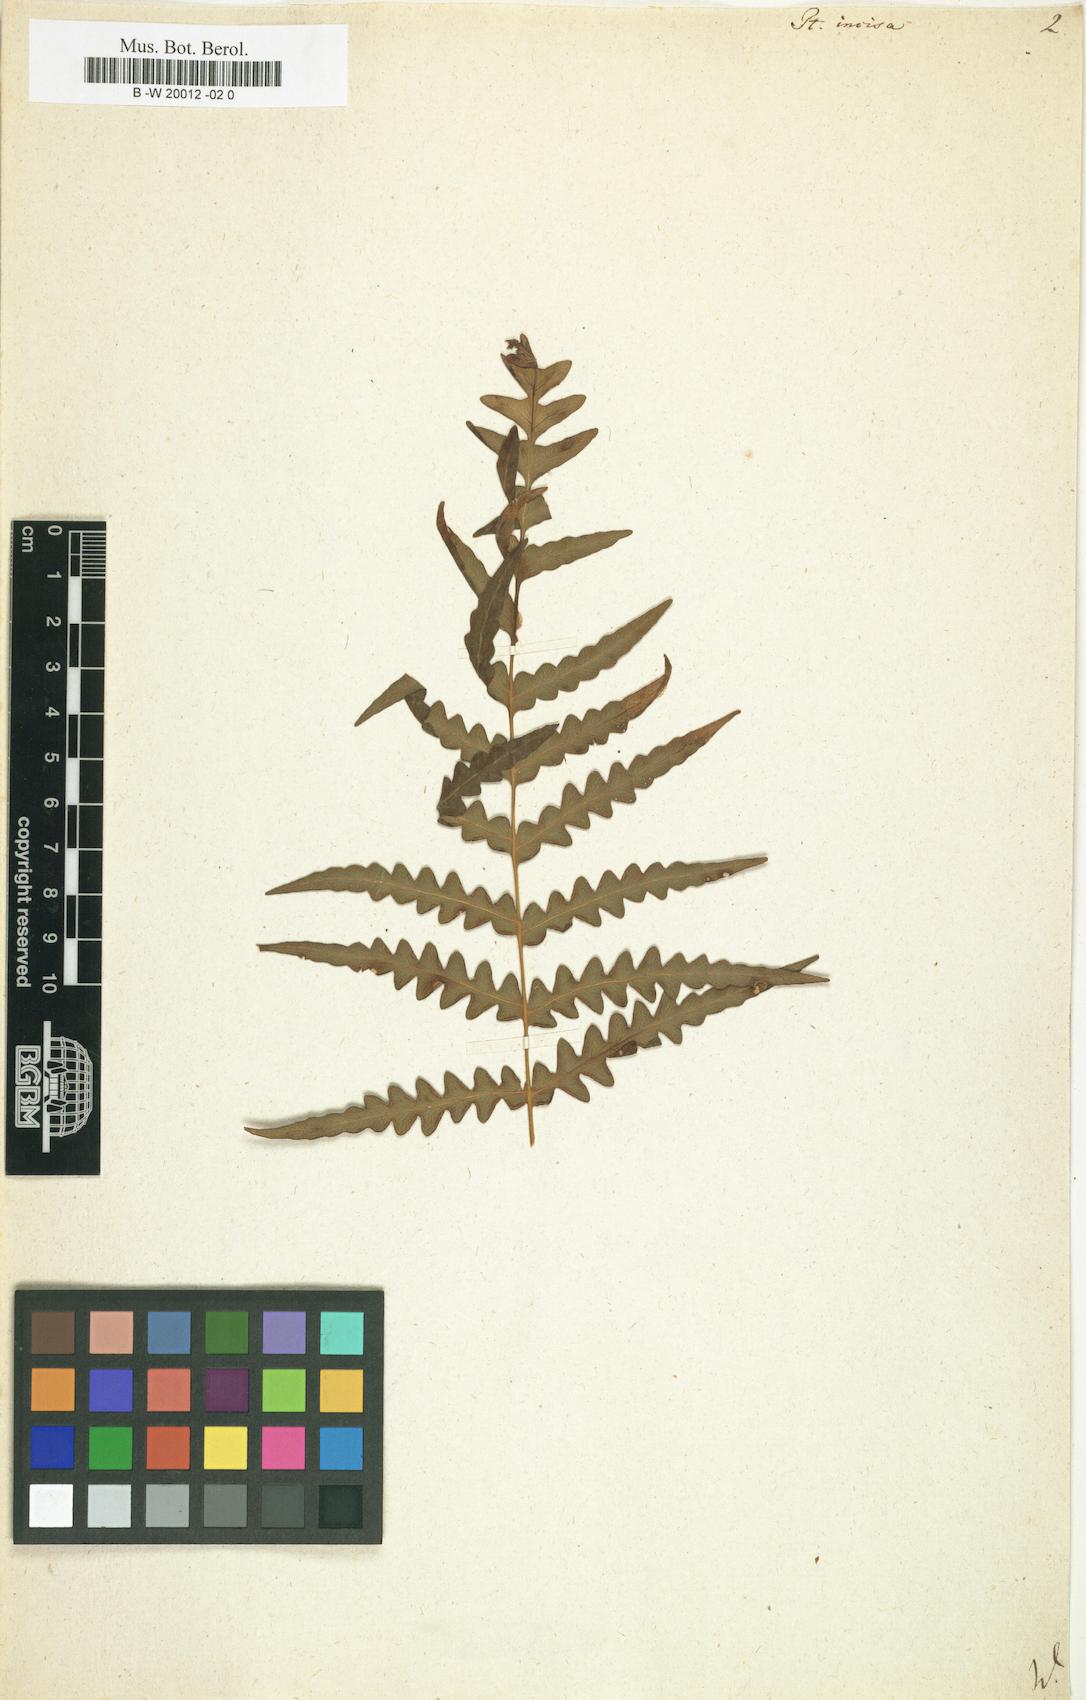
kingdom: Plantae
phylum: Tracheophyta
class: Polypodiopsida
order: Polypodiales
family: Dennstaedtiaceae
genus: Histiopteris
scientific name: Histiopteris incisa
